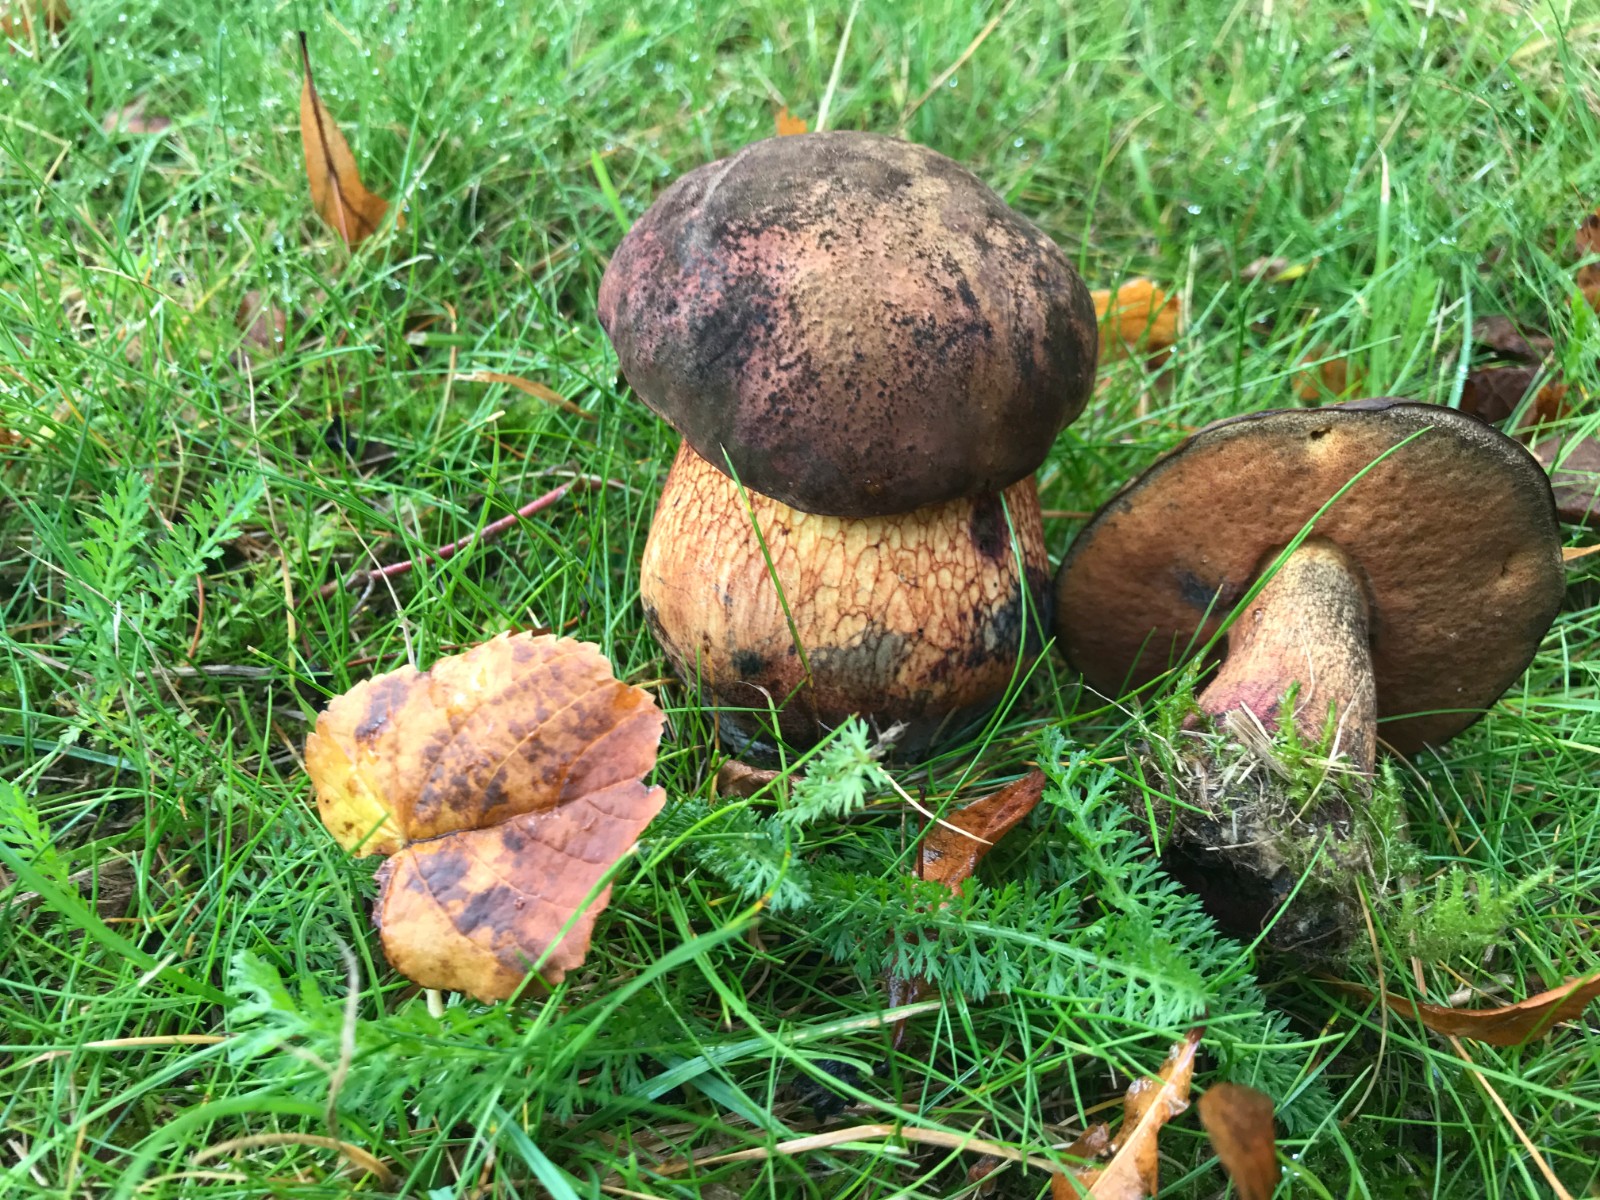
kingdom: Fungi
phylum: Basidiomycota
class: Agaricomycetes
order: Boletales
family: Boletaceae
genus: Suillellus
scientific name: Suillellus luridus
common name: netstokket indigorørhat
